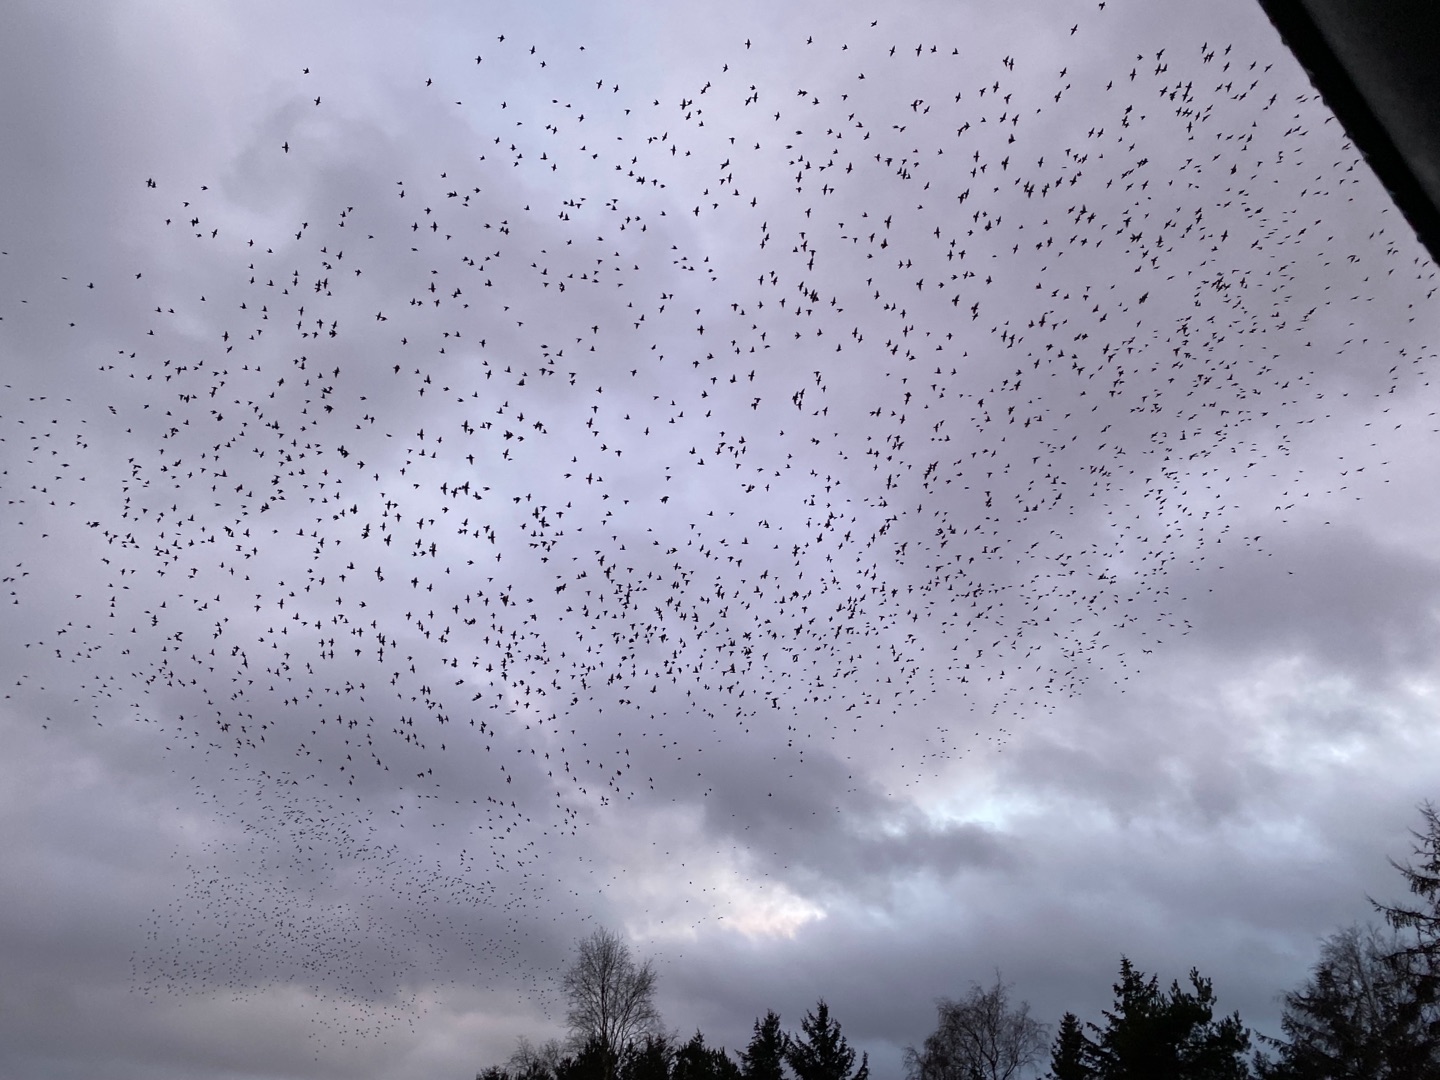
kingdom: Animalia
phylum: Chordata
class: Aves
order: Passeriformes
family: Sturnidae
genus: Sturnus
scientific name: Sturnus vulgaris
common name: Stær
